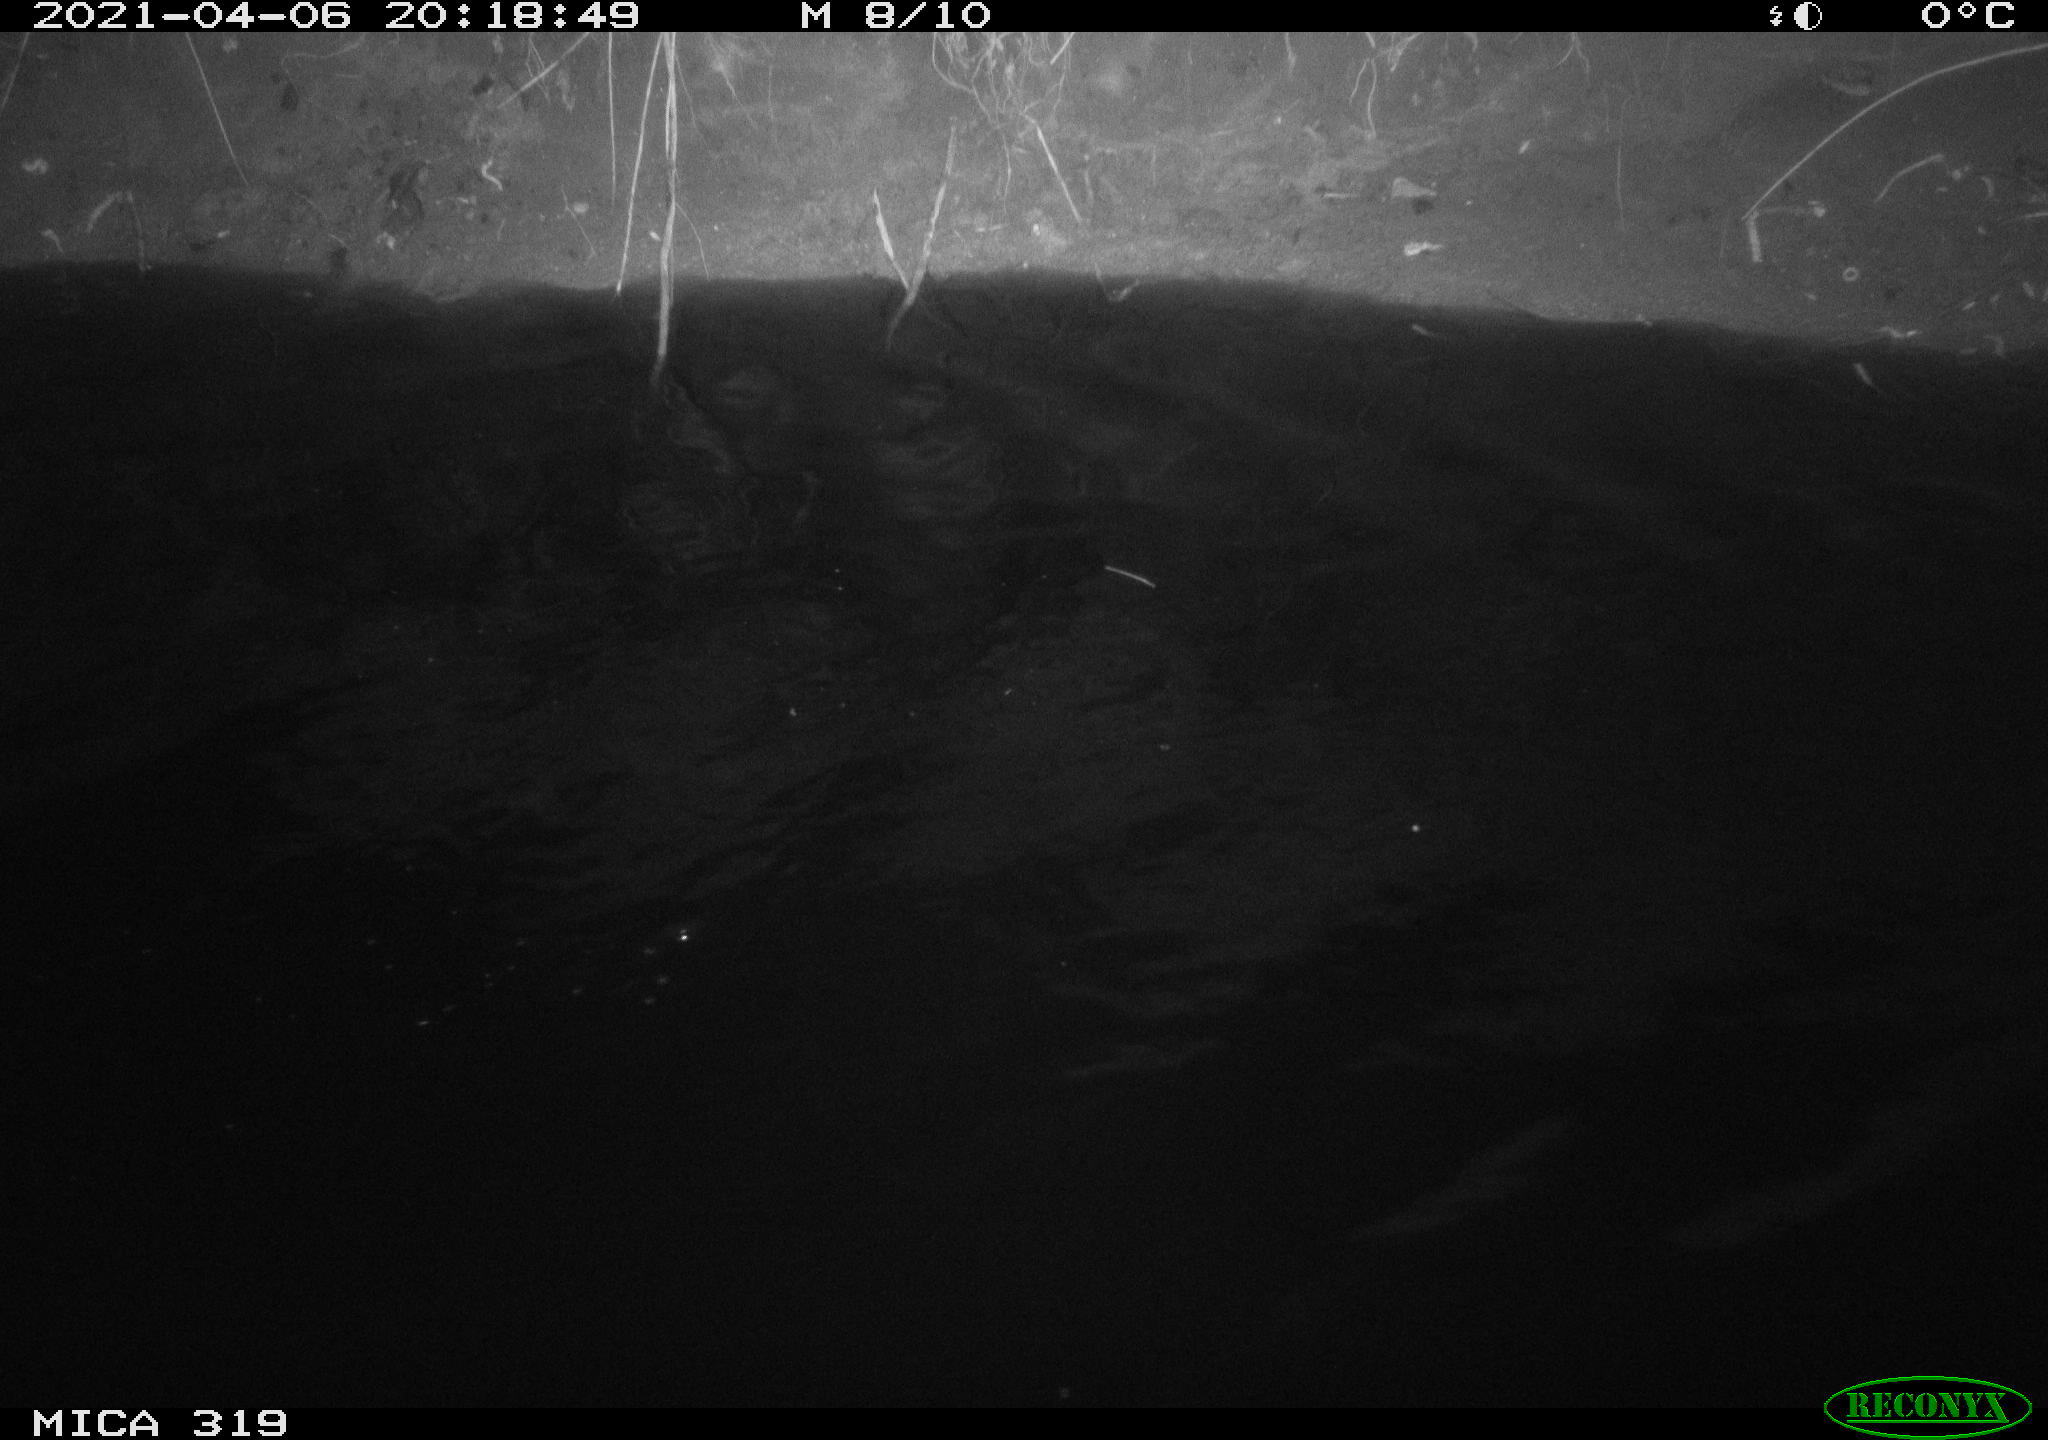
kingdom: Animalia
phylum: Chordata
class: Aves
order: Anseriformes
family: Anatidae
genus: Anas
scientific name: Anas platyrhynchos
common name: Mallard
